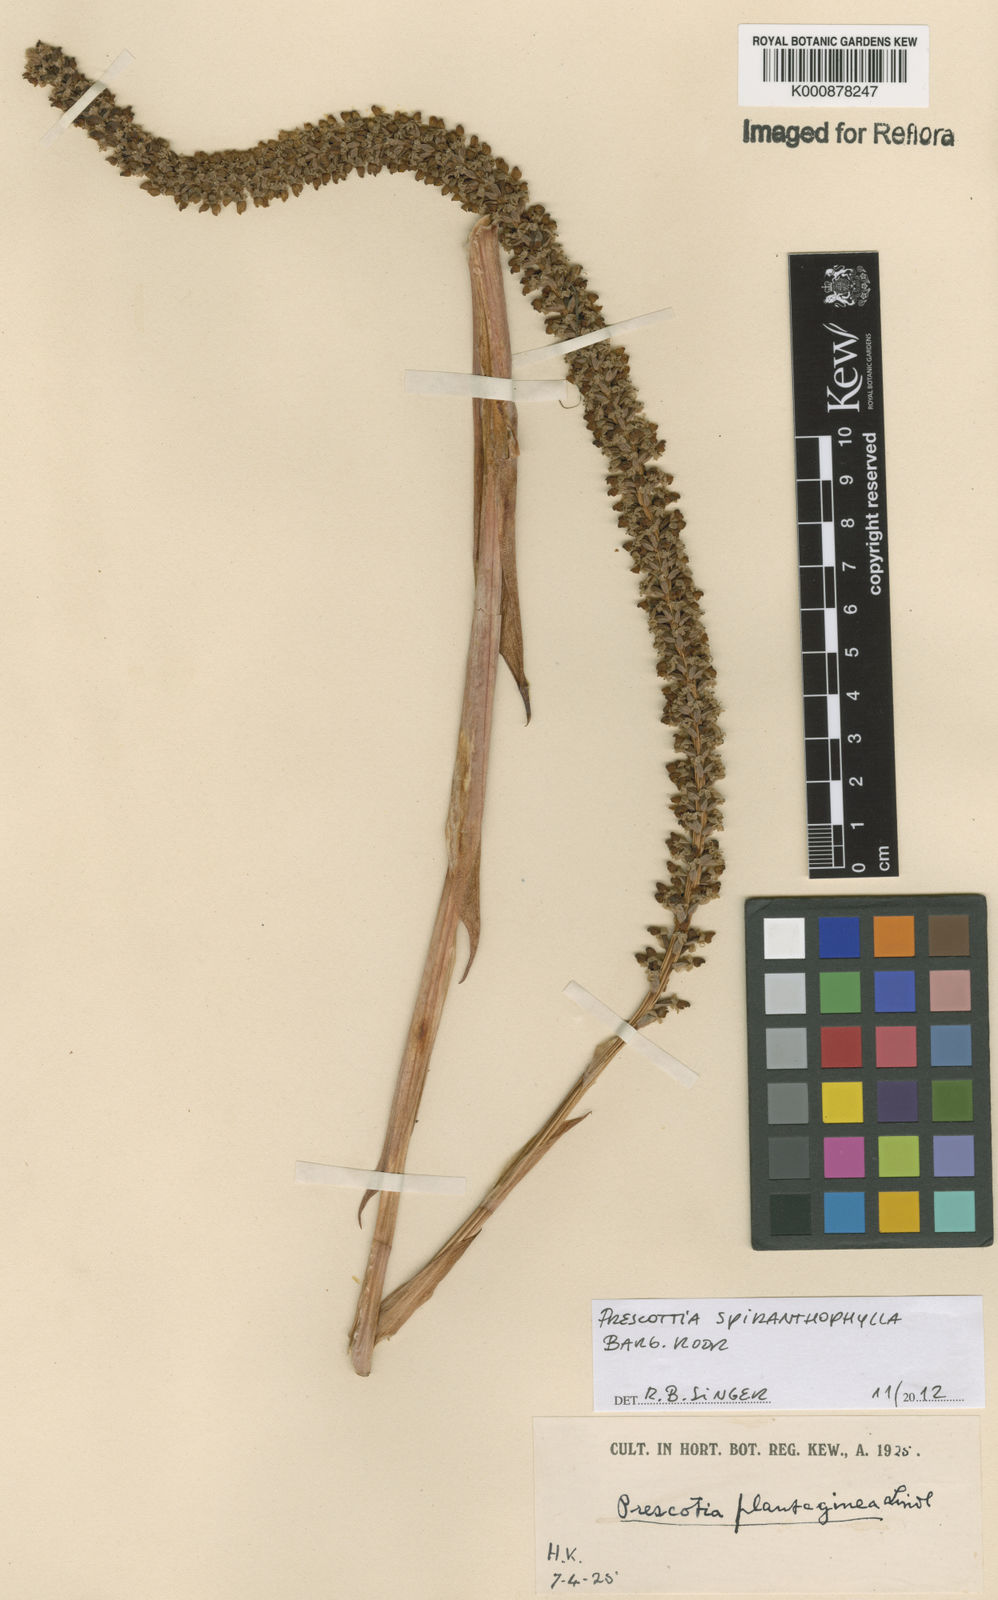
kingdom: Plantae
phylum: Tracheophyta
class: Liliopsida
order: Asparagales
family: Orchidaceae
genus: Prescottia
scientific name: Prescottia spiranthophylla
